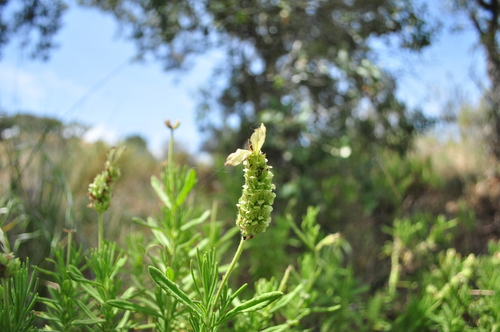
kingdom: Plantae
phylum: Tracheophyta
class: Magnoliopsida
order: Lamiales
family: Lamiaceae
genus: Lavandula
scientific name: Lavandula viridis
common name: Green spanish lavender
